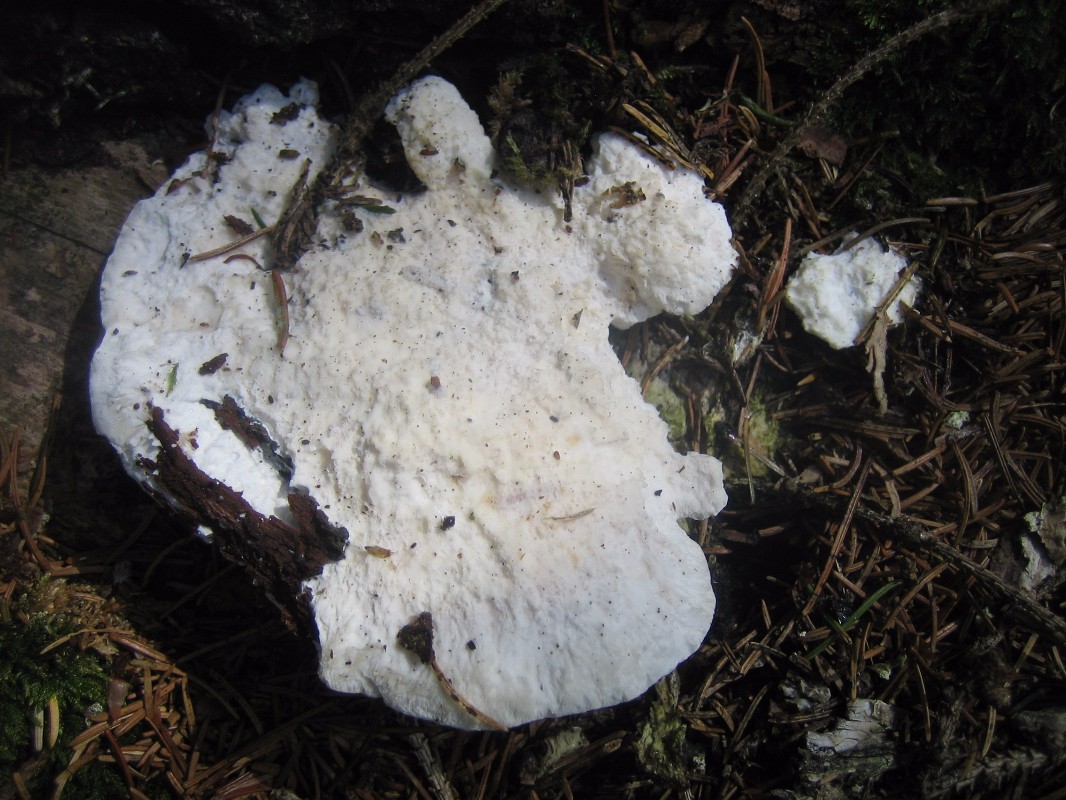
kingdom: Fungi
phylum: Basidiomycota
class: Agaricomycetes
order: Polyporales
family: Dacryobolaceae
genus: Oligoporus
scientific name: Oligoporus
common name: kødporesvamp
